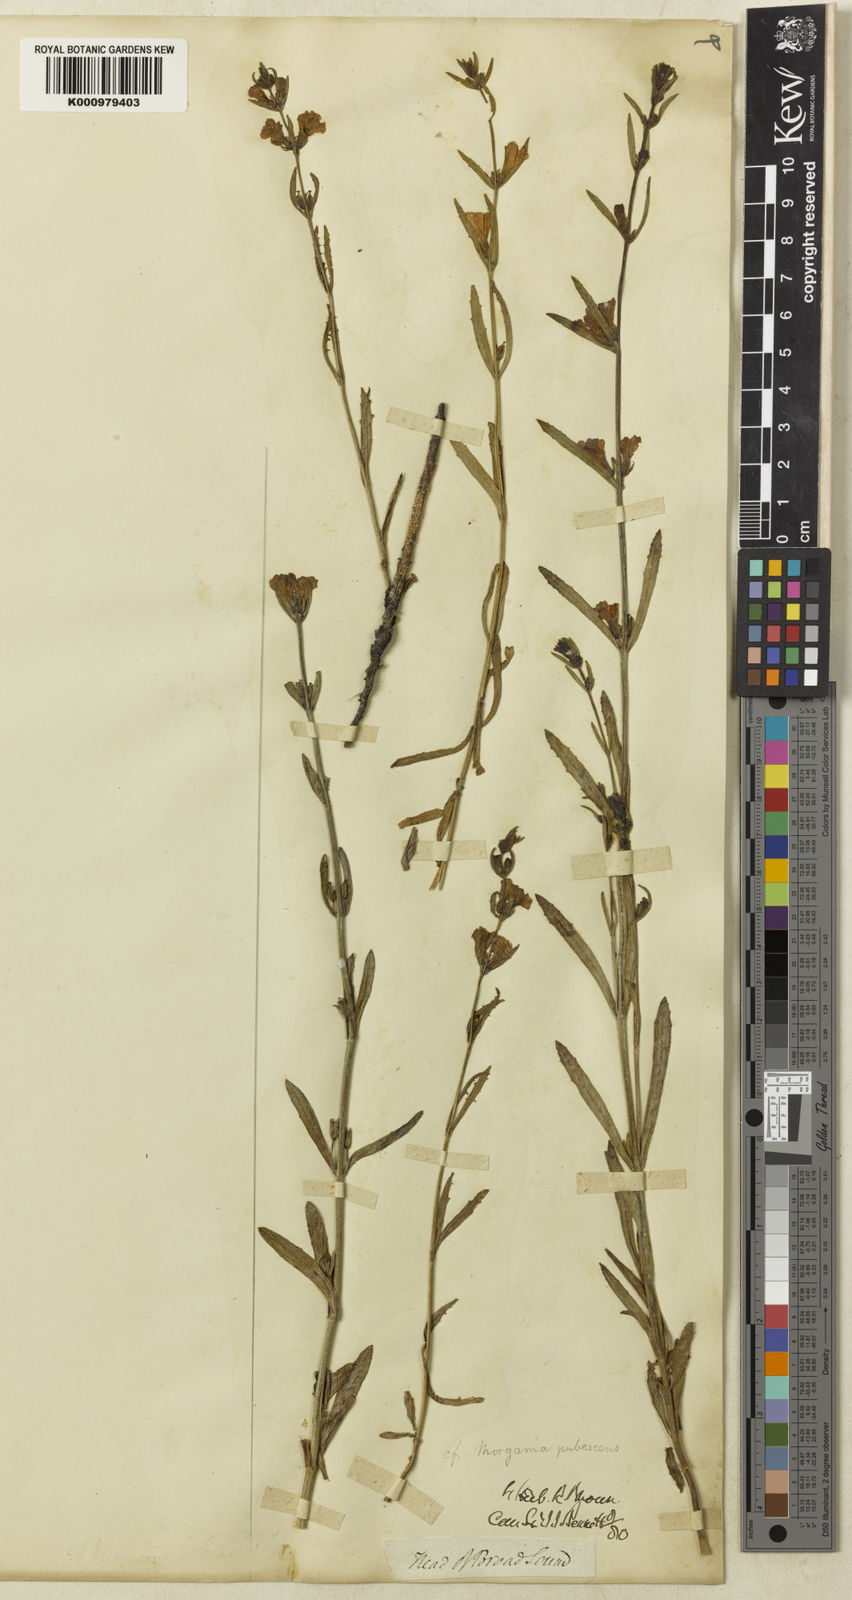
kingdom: Plantae
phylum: Tracheophyta
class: Magnoliopsida
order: Lamiales
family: Plantaginaceae
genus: Stemodia
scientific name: Stemodia pubescens
